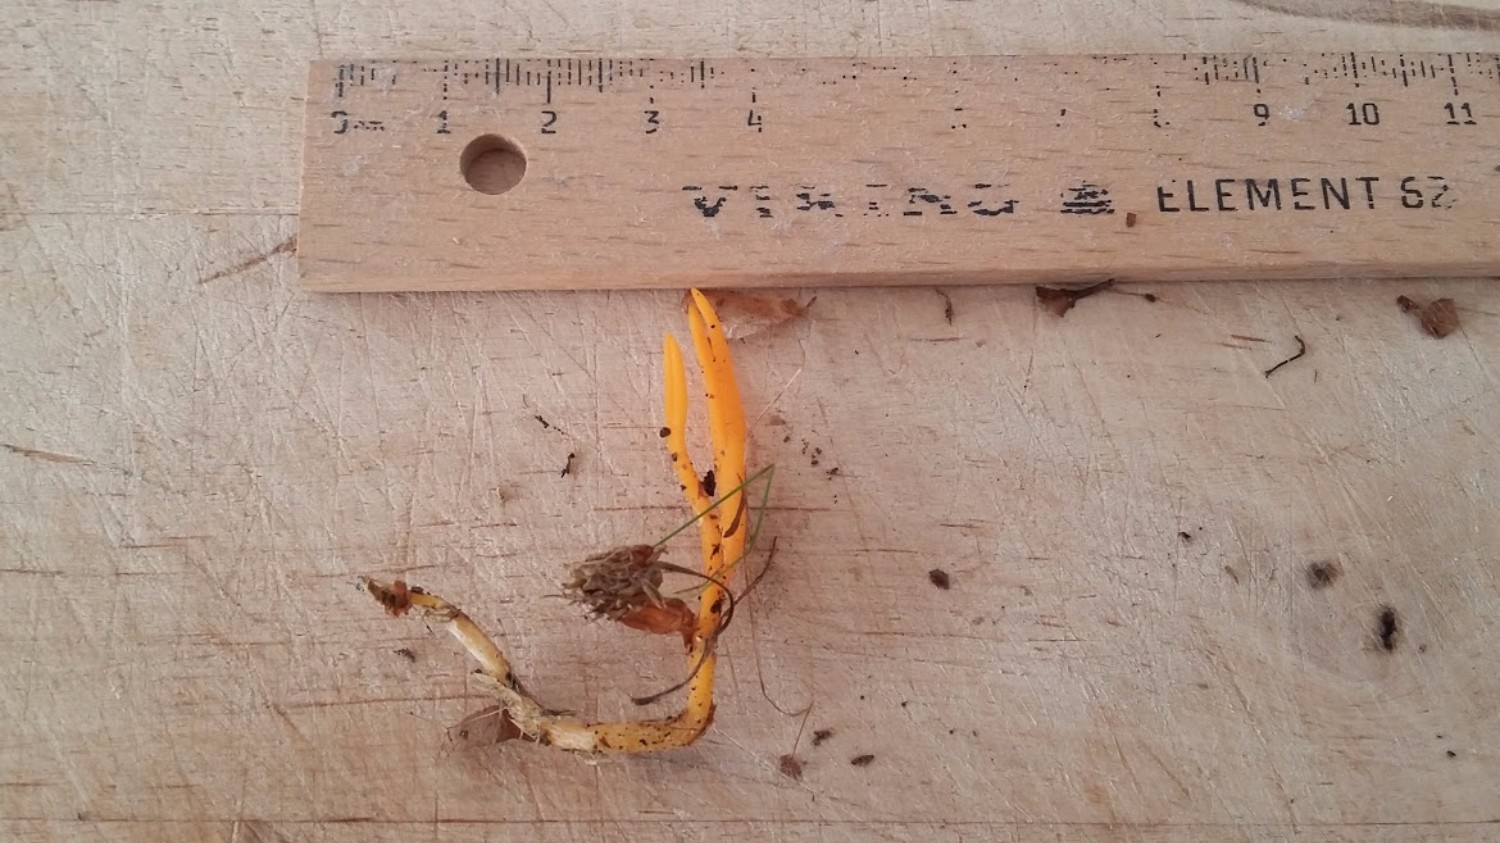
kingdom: Fungi
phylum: Basidiomycota
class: Dacrymycetes
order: Dacrymycetales
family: Dacrymycetaceae
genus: Calocera
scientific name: Calocera viscosa
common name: almindelig guldgaffel
